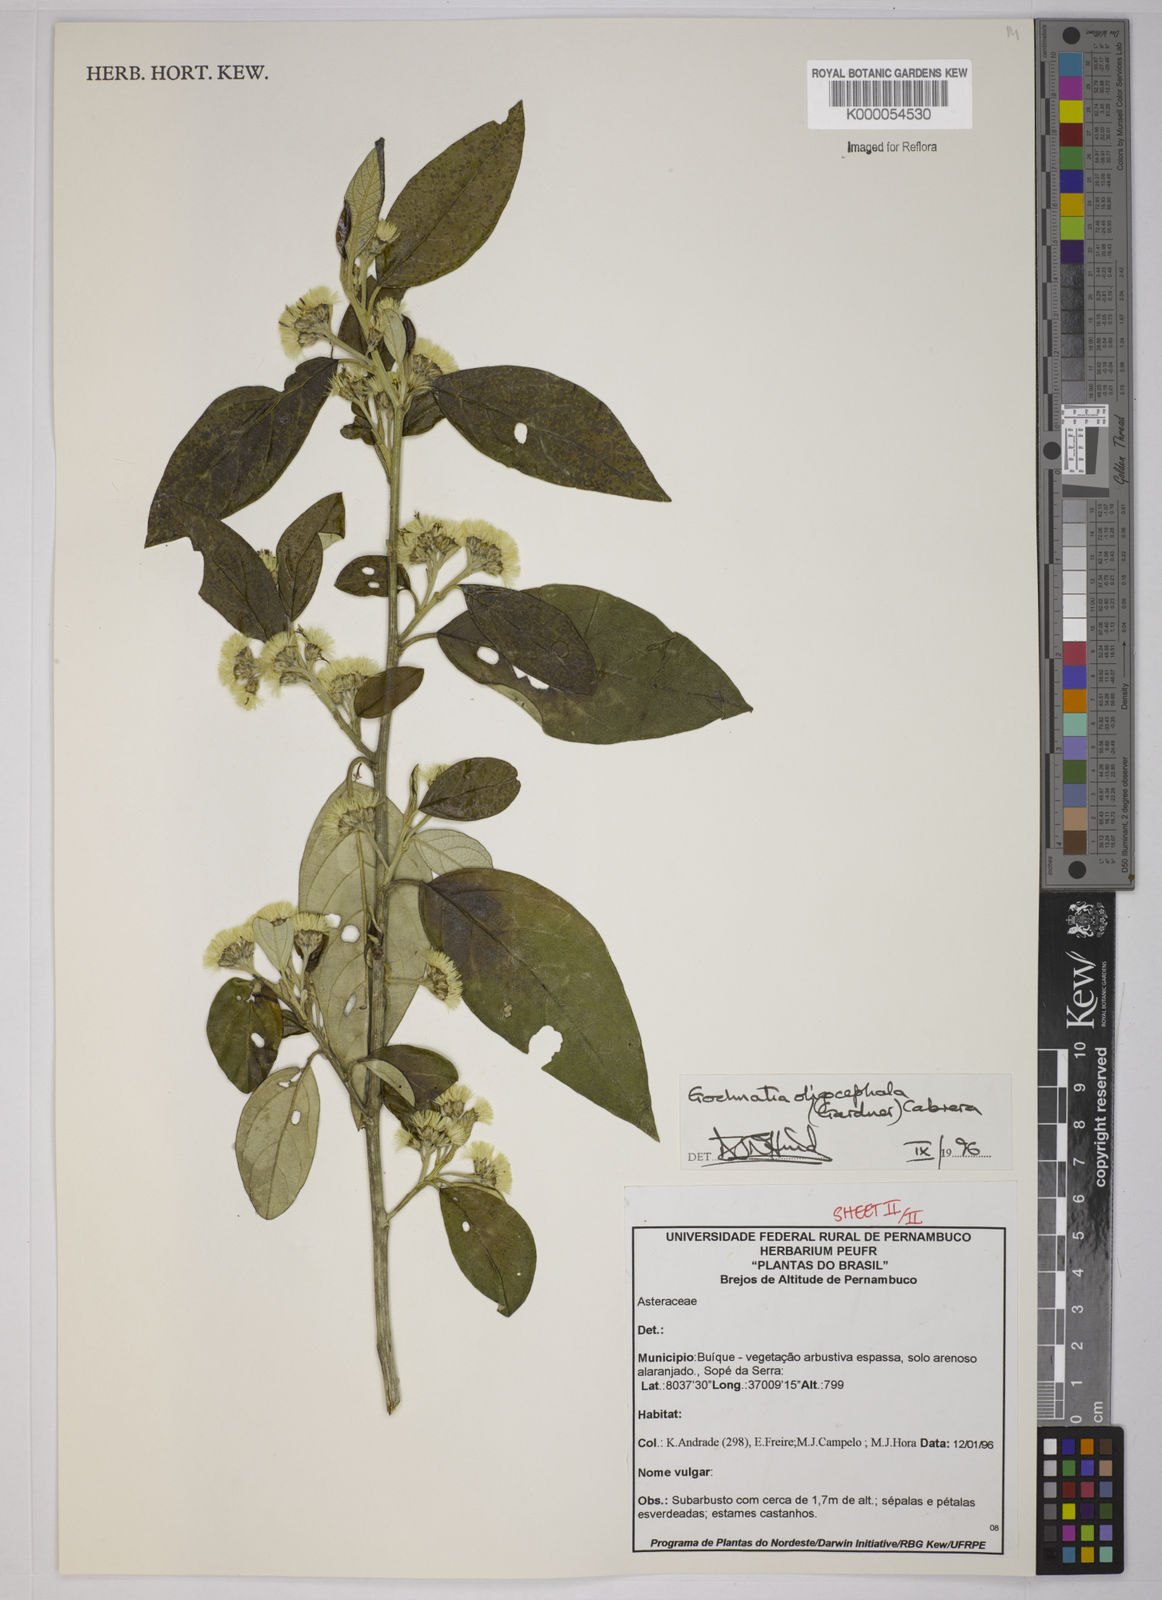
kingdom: Plantae
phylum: Tracheophyta
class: Magnoliopsida
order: Asterales
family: Asteraceae
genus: Moquiniastrum
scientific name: Moquiniastrum oligocephalum
